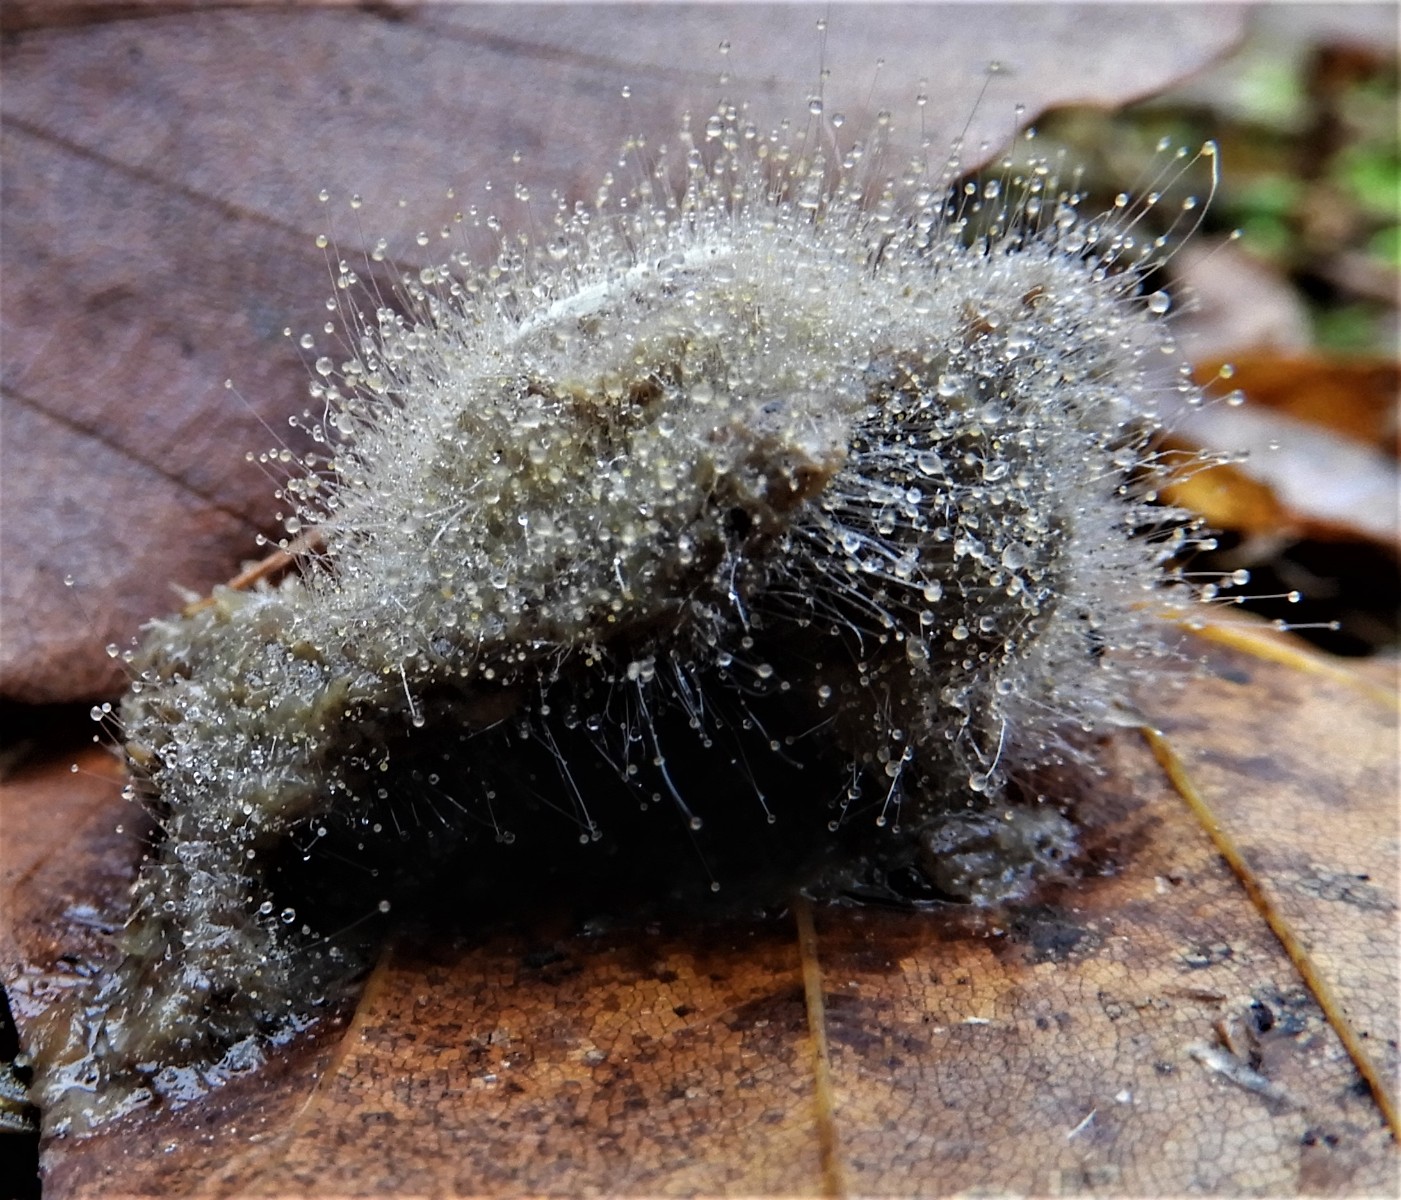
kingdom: Fungi
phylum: Mucoromycota
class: Mucoromycetes
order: Mucorales
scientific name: Mucorales
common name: mugordenen
